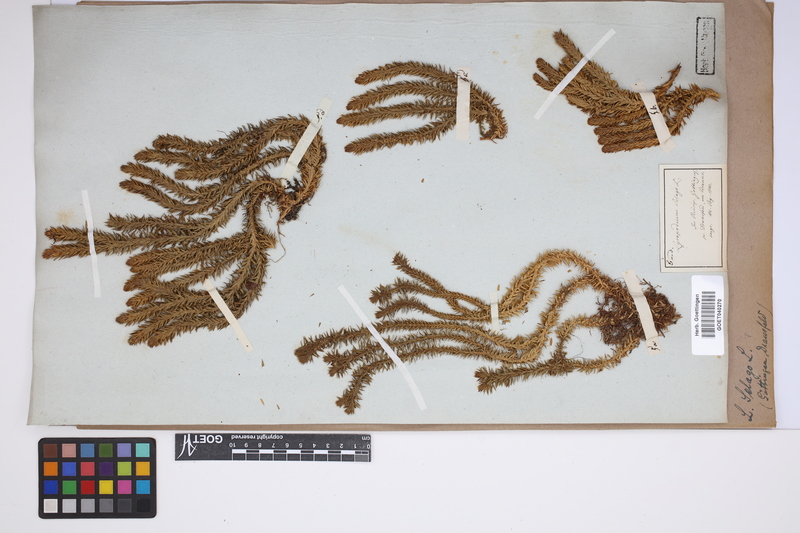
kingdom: Plantae
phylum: Tracheophyta
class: Lycopodiopsida
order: Lycopodiales
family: Lycopodiaceae
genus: Huperzia
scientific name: Huperzia selago
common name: Northern firmoss
